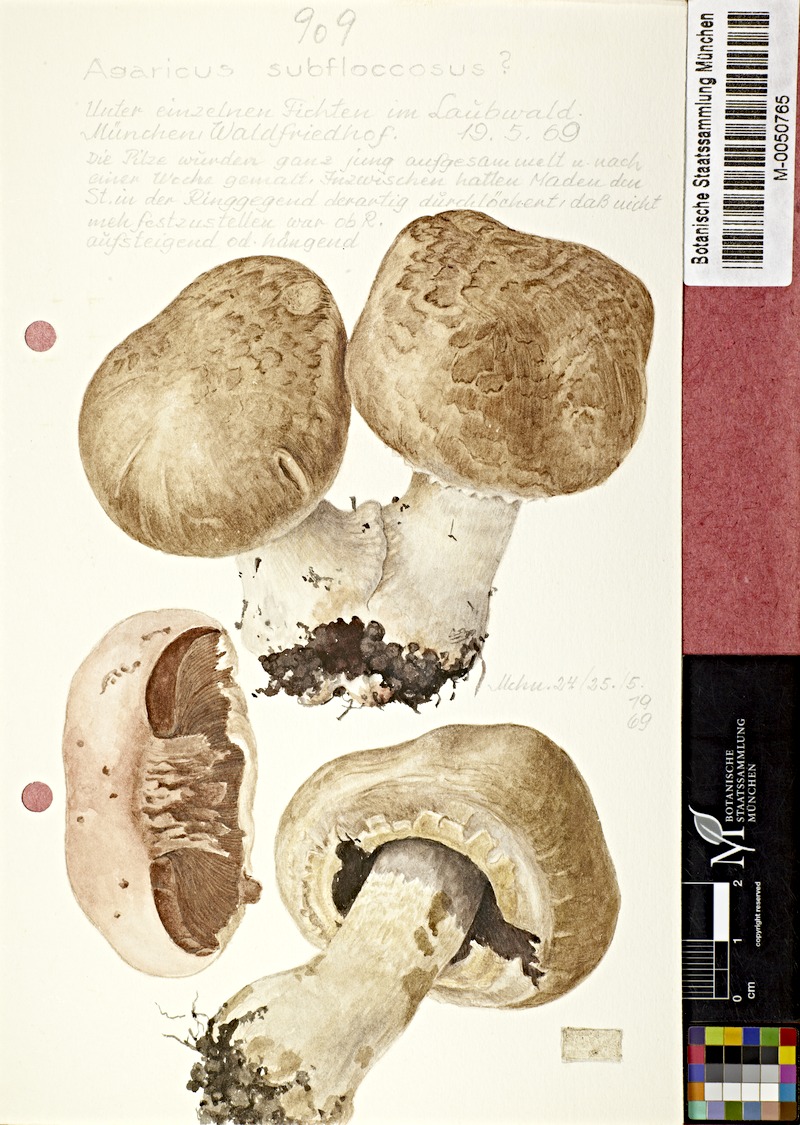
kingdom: Fungi
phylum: Basidiomycota
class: Agaricomycetes
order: Agaricales
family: Agaricaceae
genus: Agaricus
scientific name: Agaricus subfloccosus
